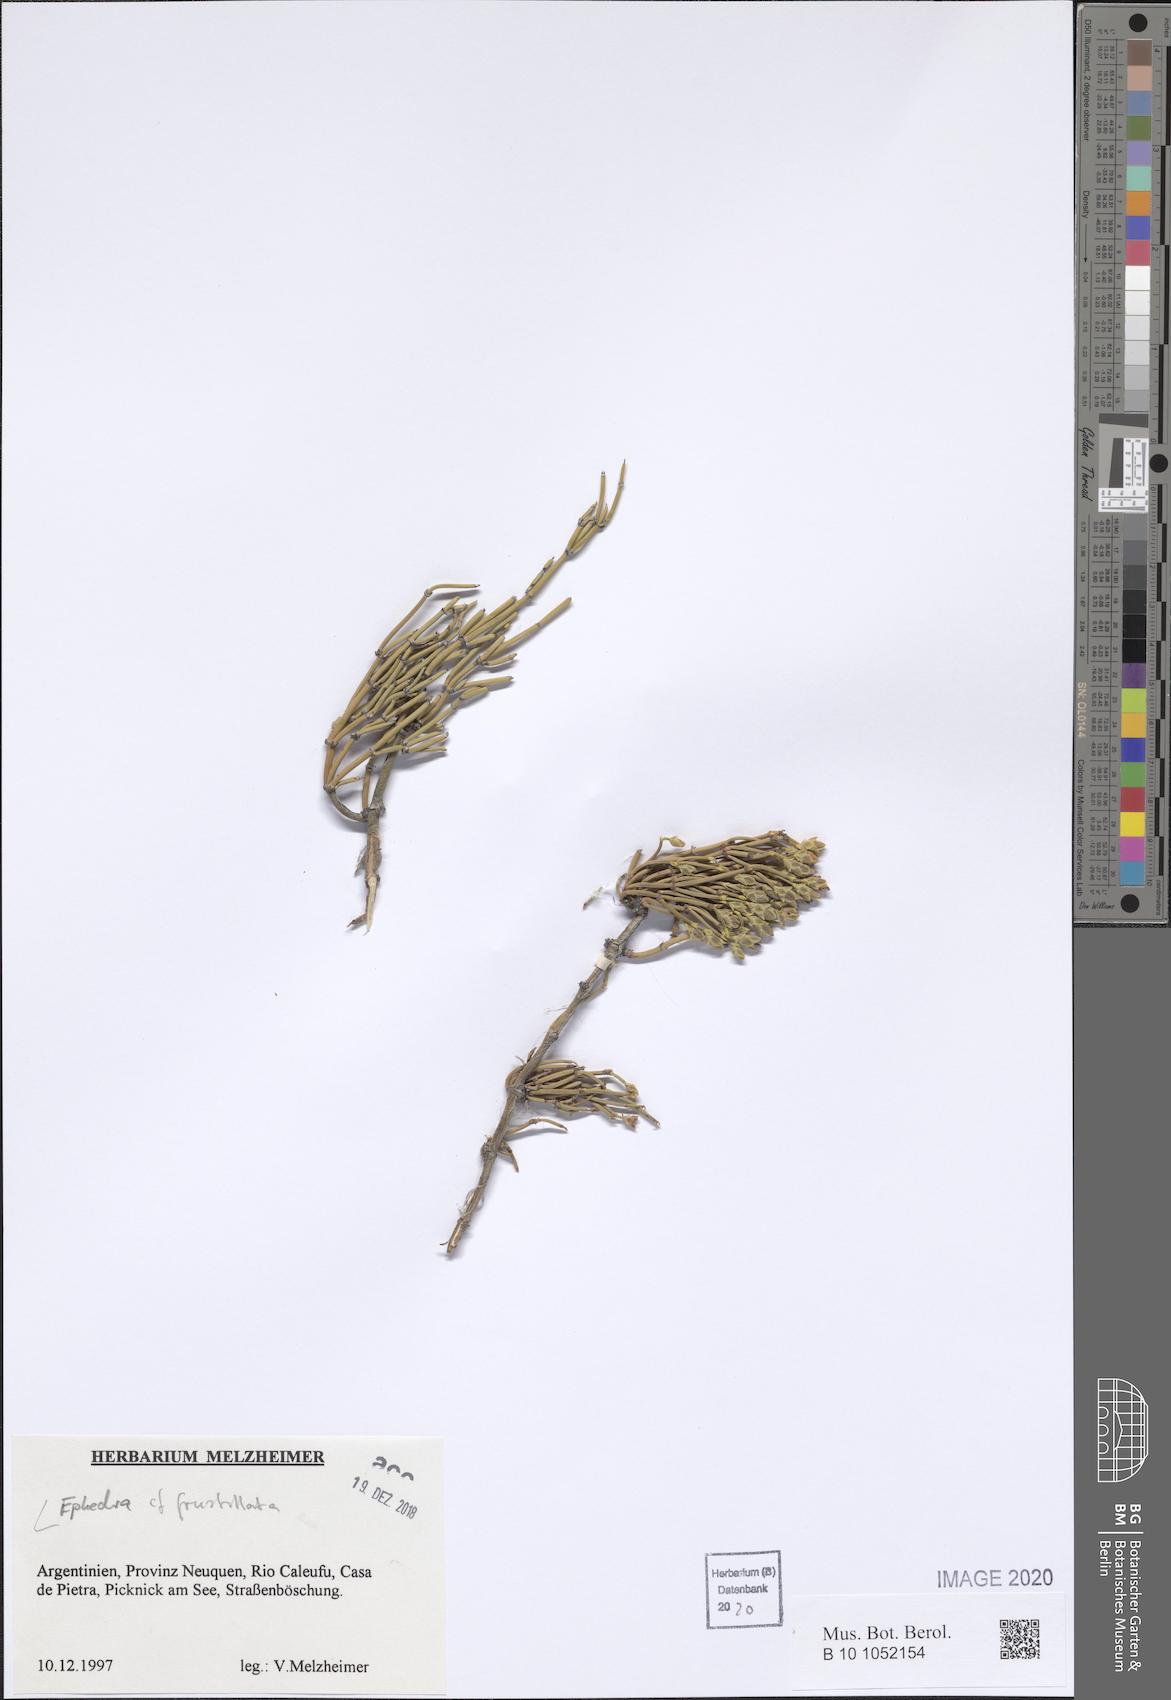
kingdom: Plantae
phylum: Tracheophyta
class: Gnetopsida
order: Ephedrales
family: Ephedraceae
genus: Ephedra
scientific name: Ephedra frustillata
